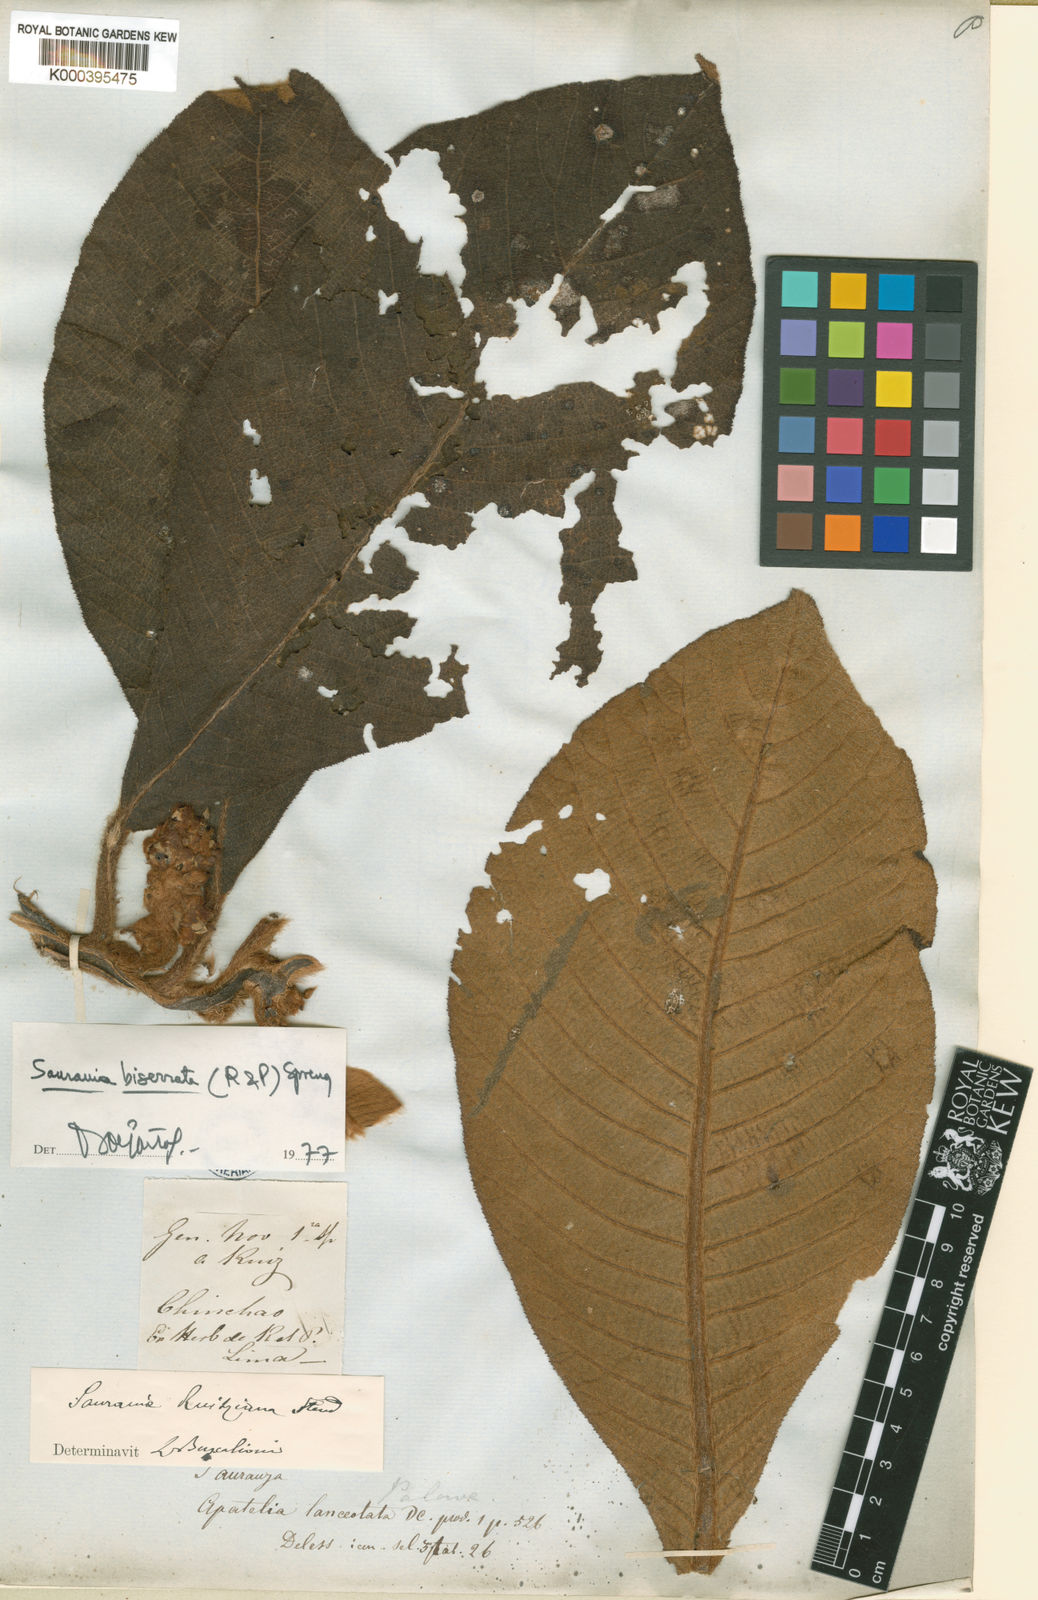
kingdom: Plantae
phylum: Tracheophyta
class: Magnoliopsida
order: Ericales
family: Actinidiaceae
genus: Saurauia
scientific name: Saurauia biserrata
